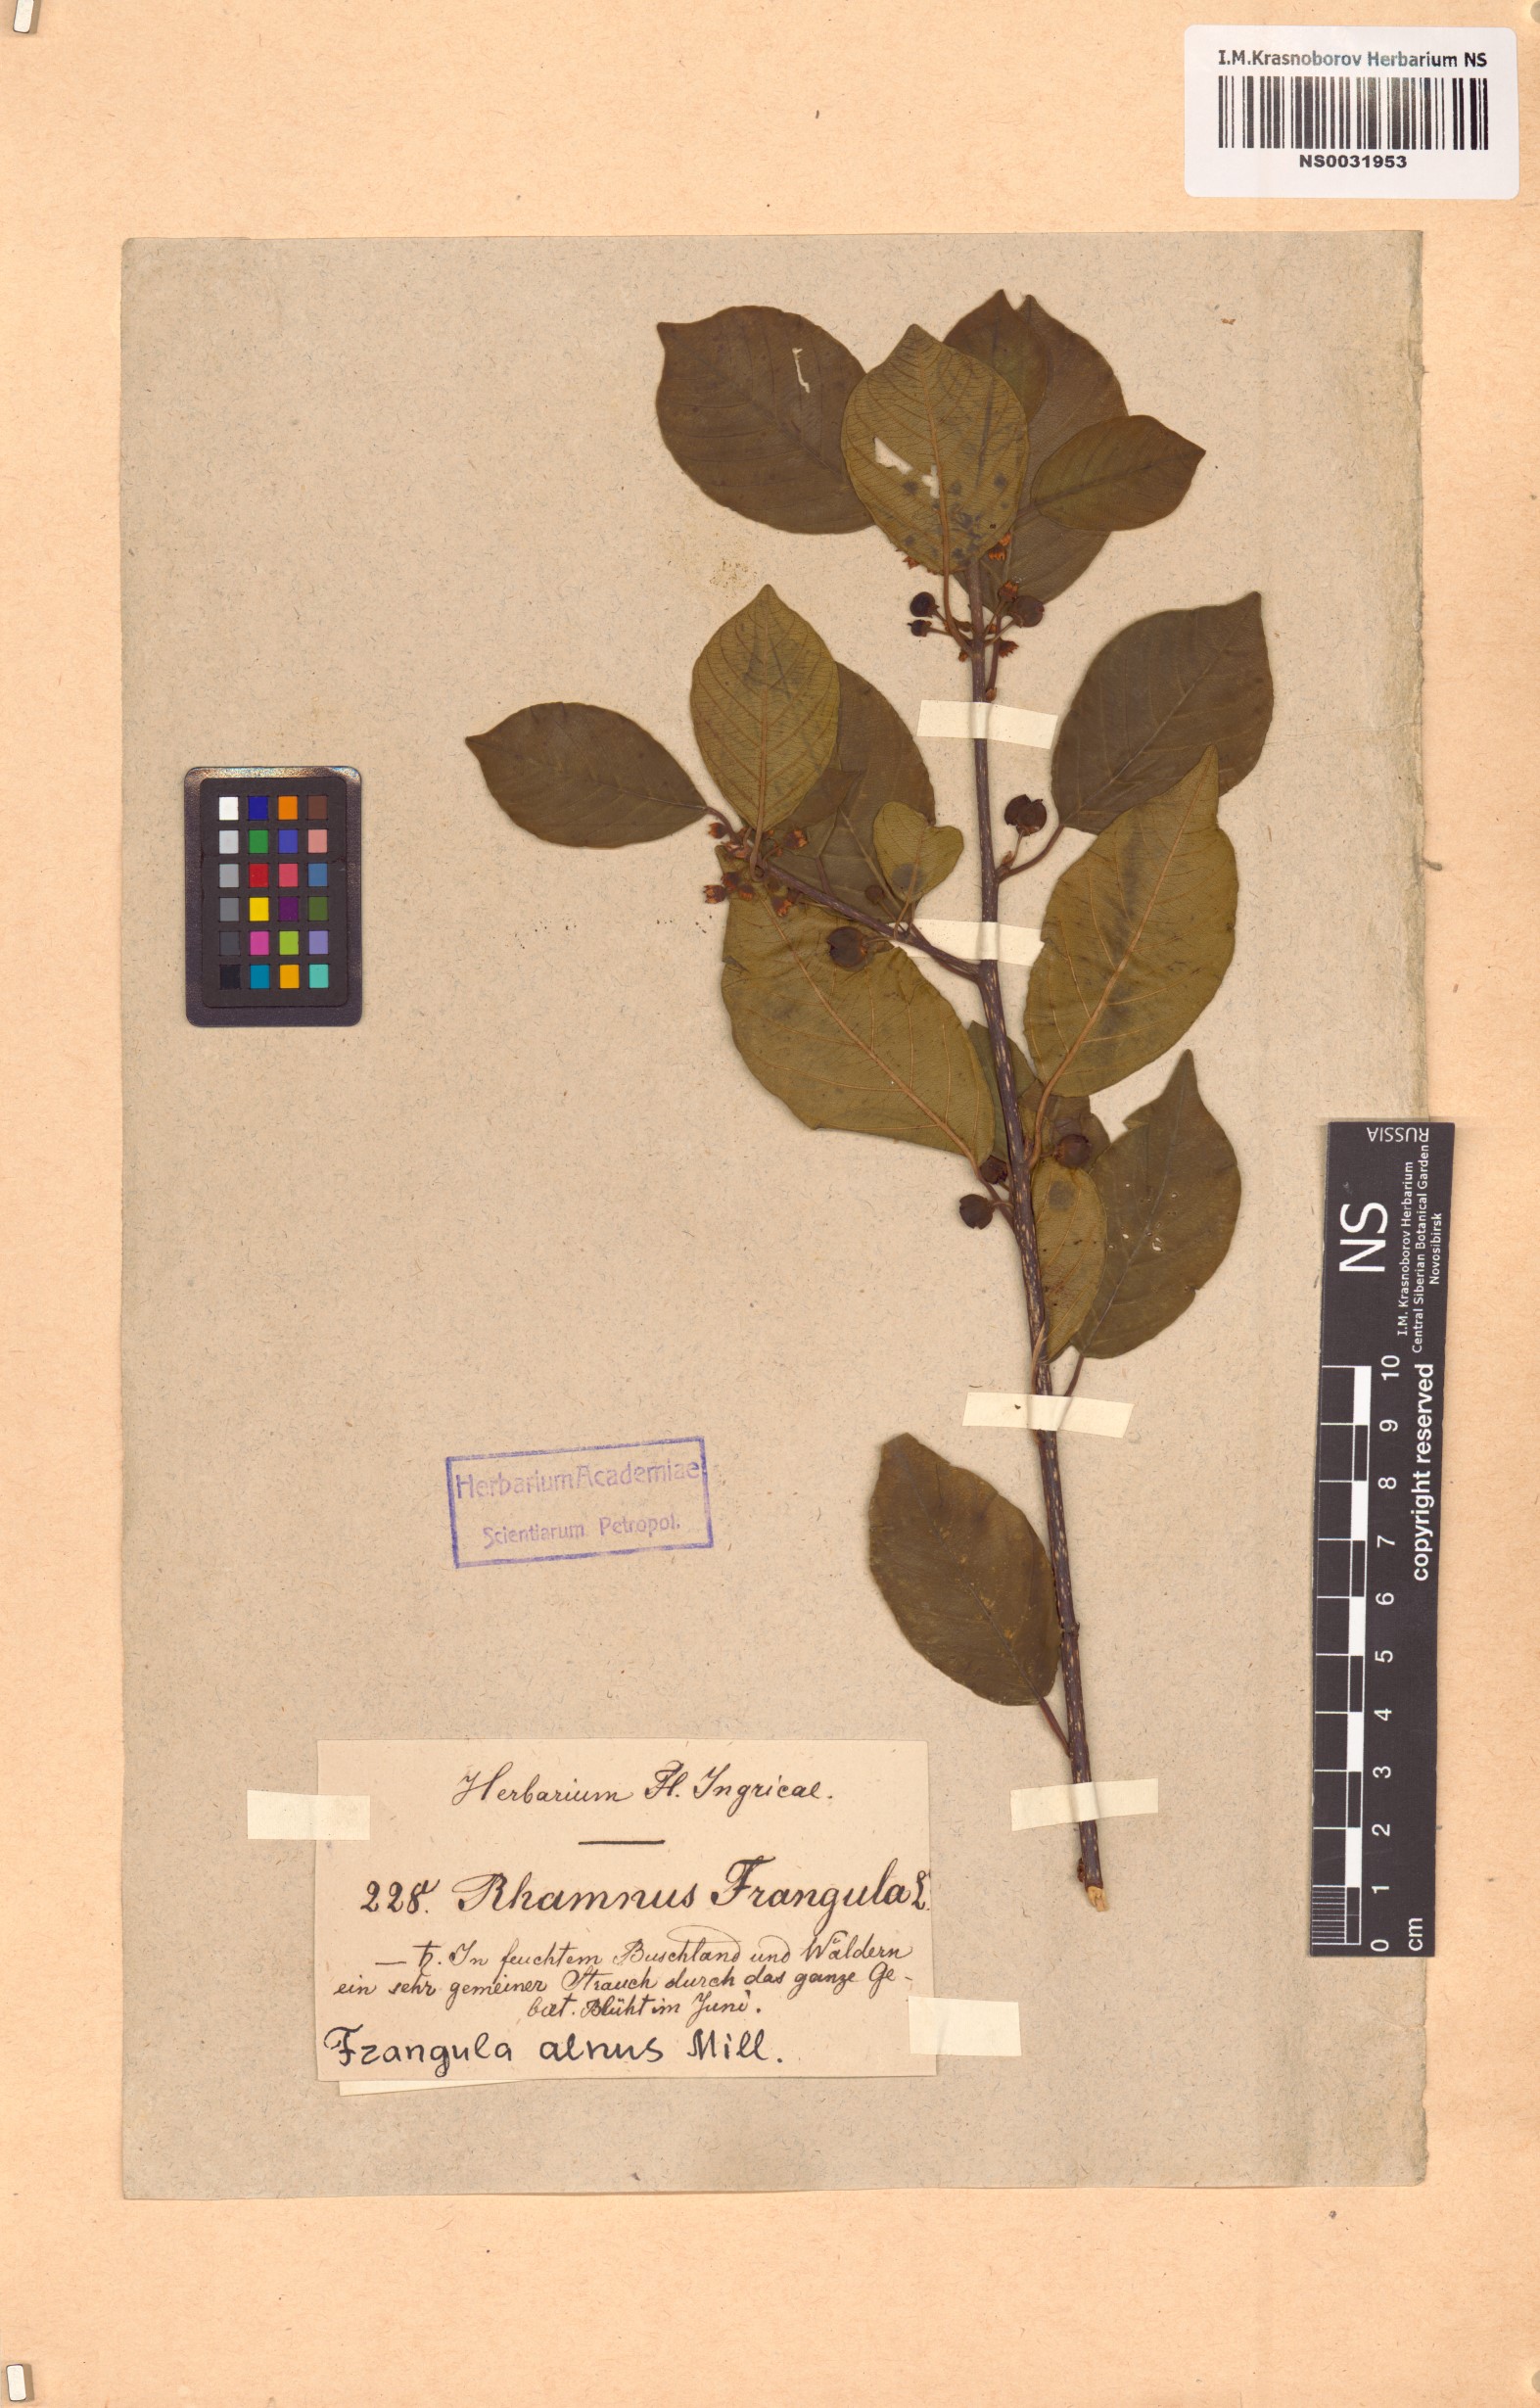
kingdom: Plantae
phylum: Tracheophyta
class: Magnoliopsida
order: Rosales
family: Rhamnaceae
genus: Frangula
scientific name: Frangula alnus
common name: Alder buckthorn
